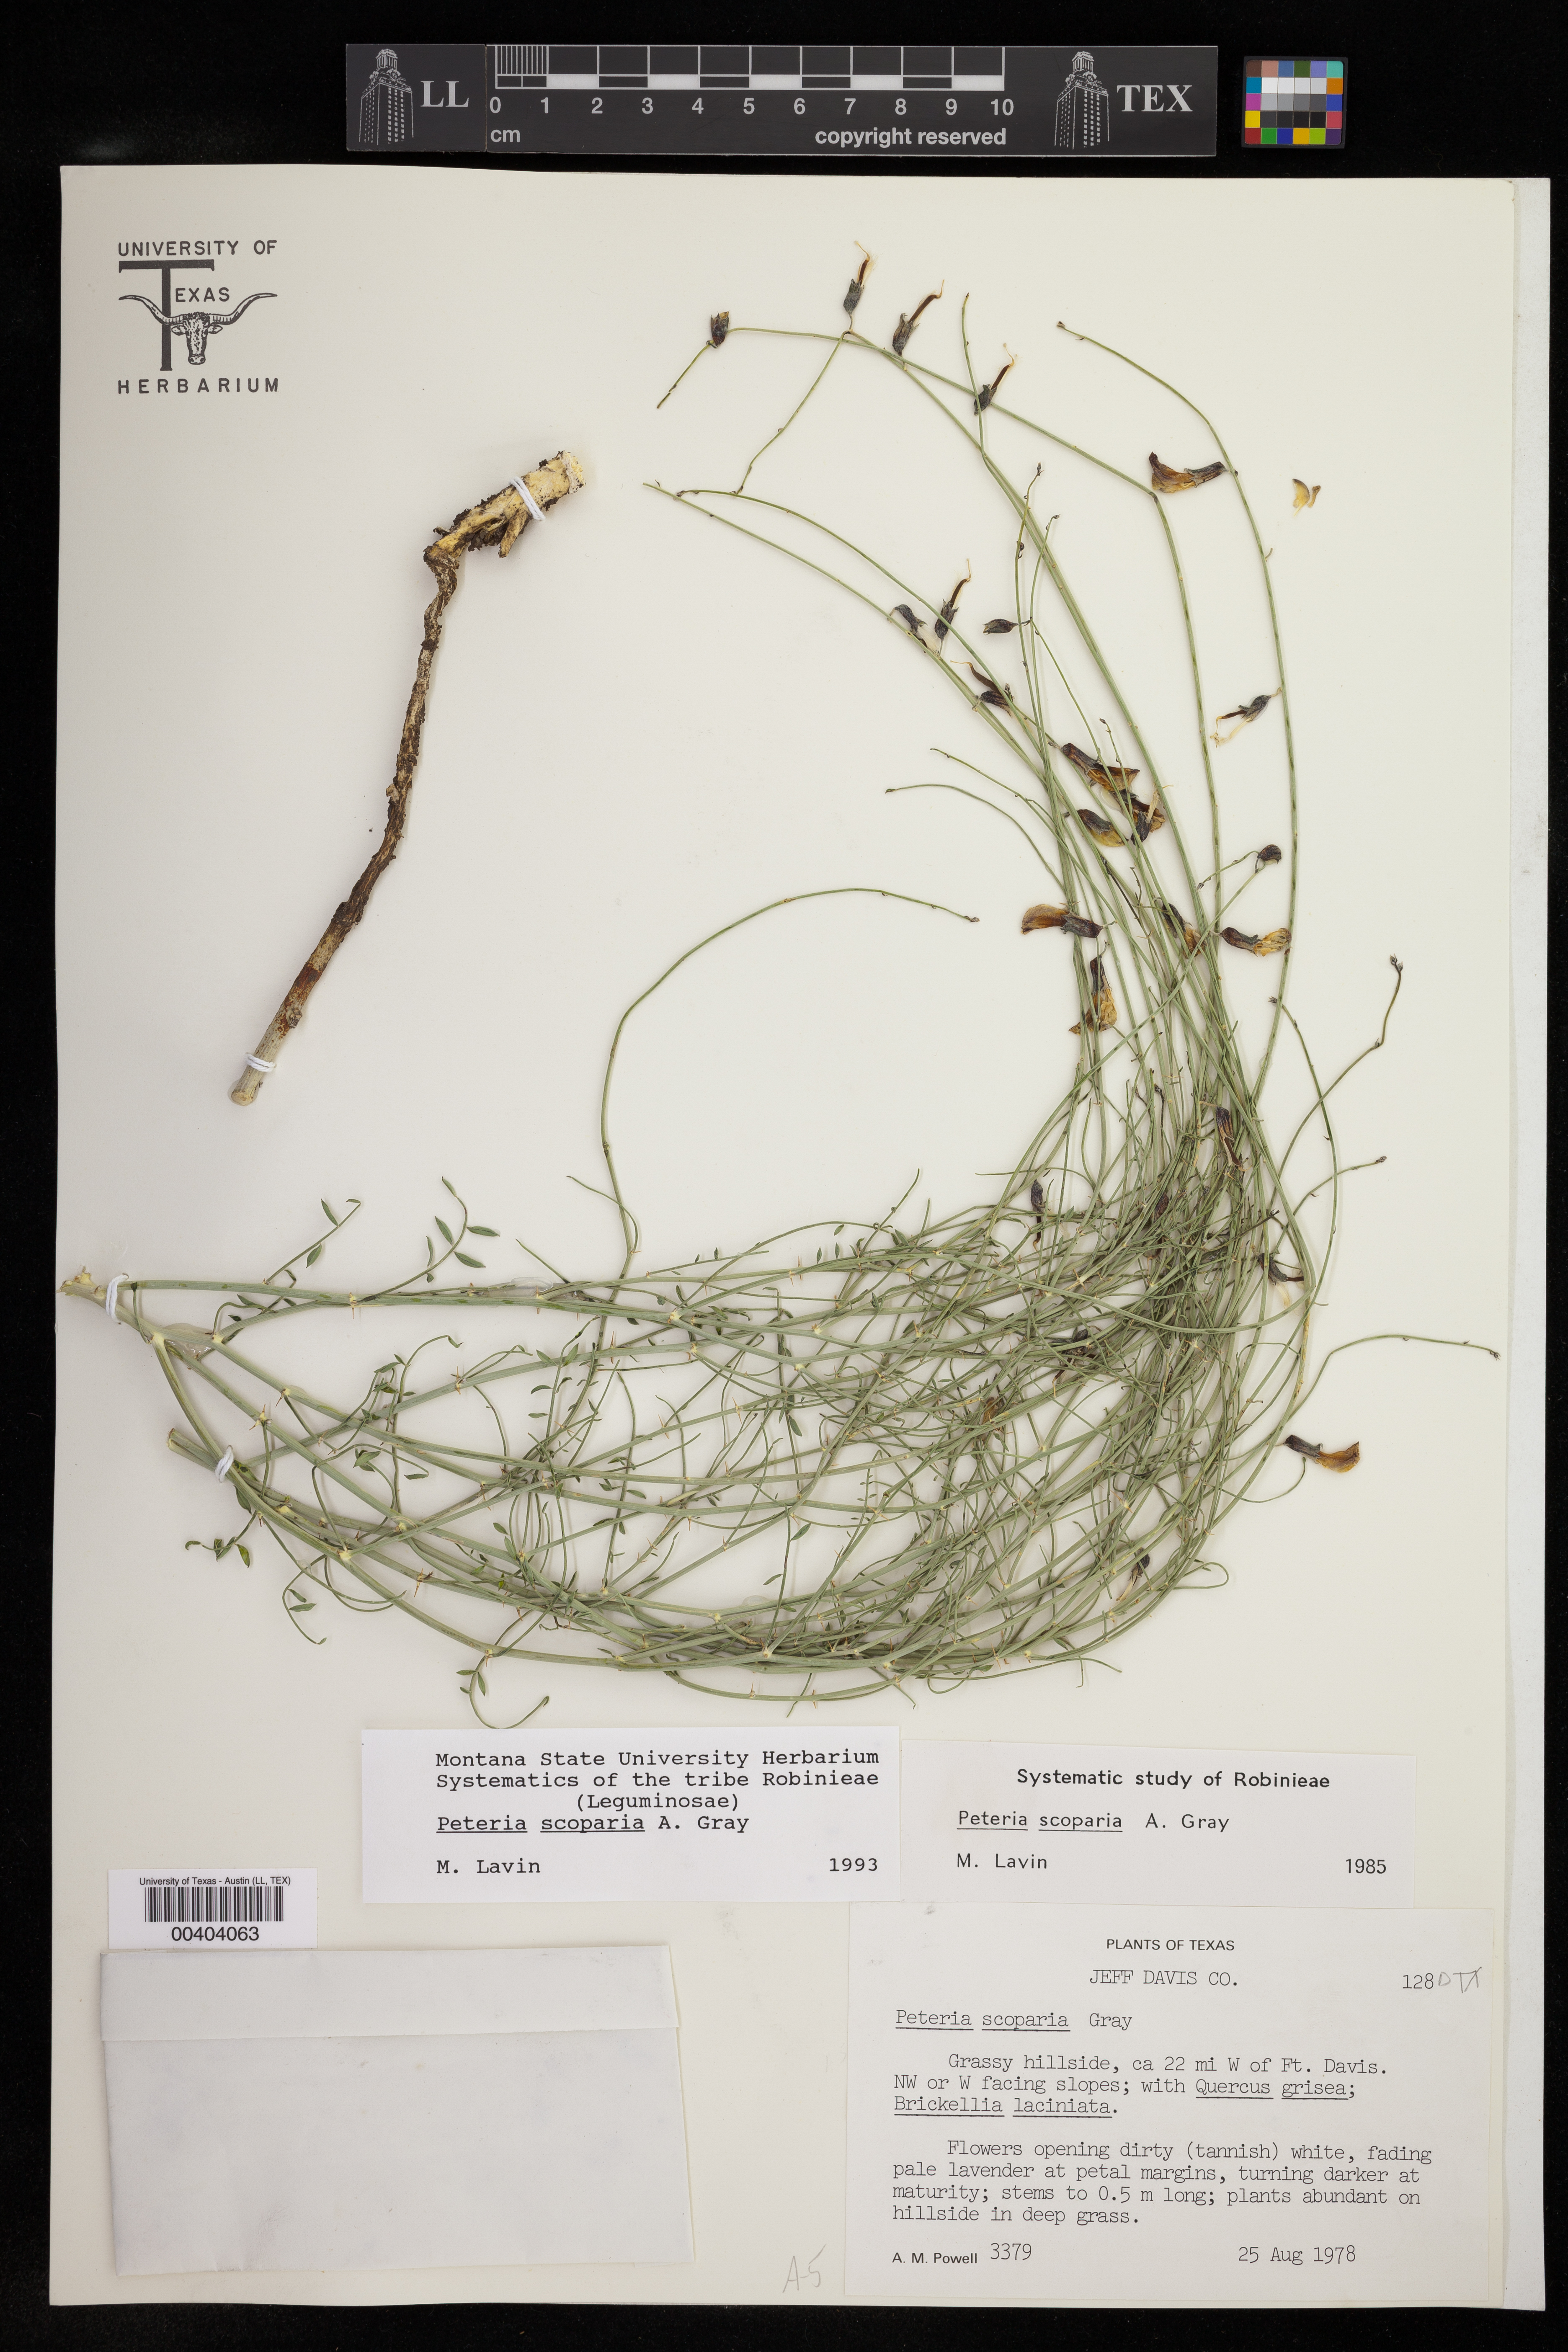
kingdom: Plantae
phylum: Tracheophyta
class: Magnoliopsida
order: Fabales
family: Fabaceae
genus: Peteria
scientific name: Peteria scoparia
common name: Camote del monte
